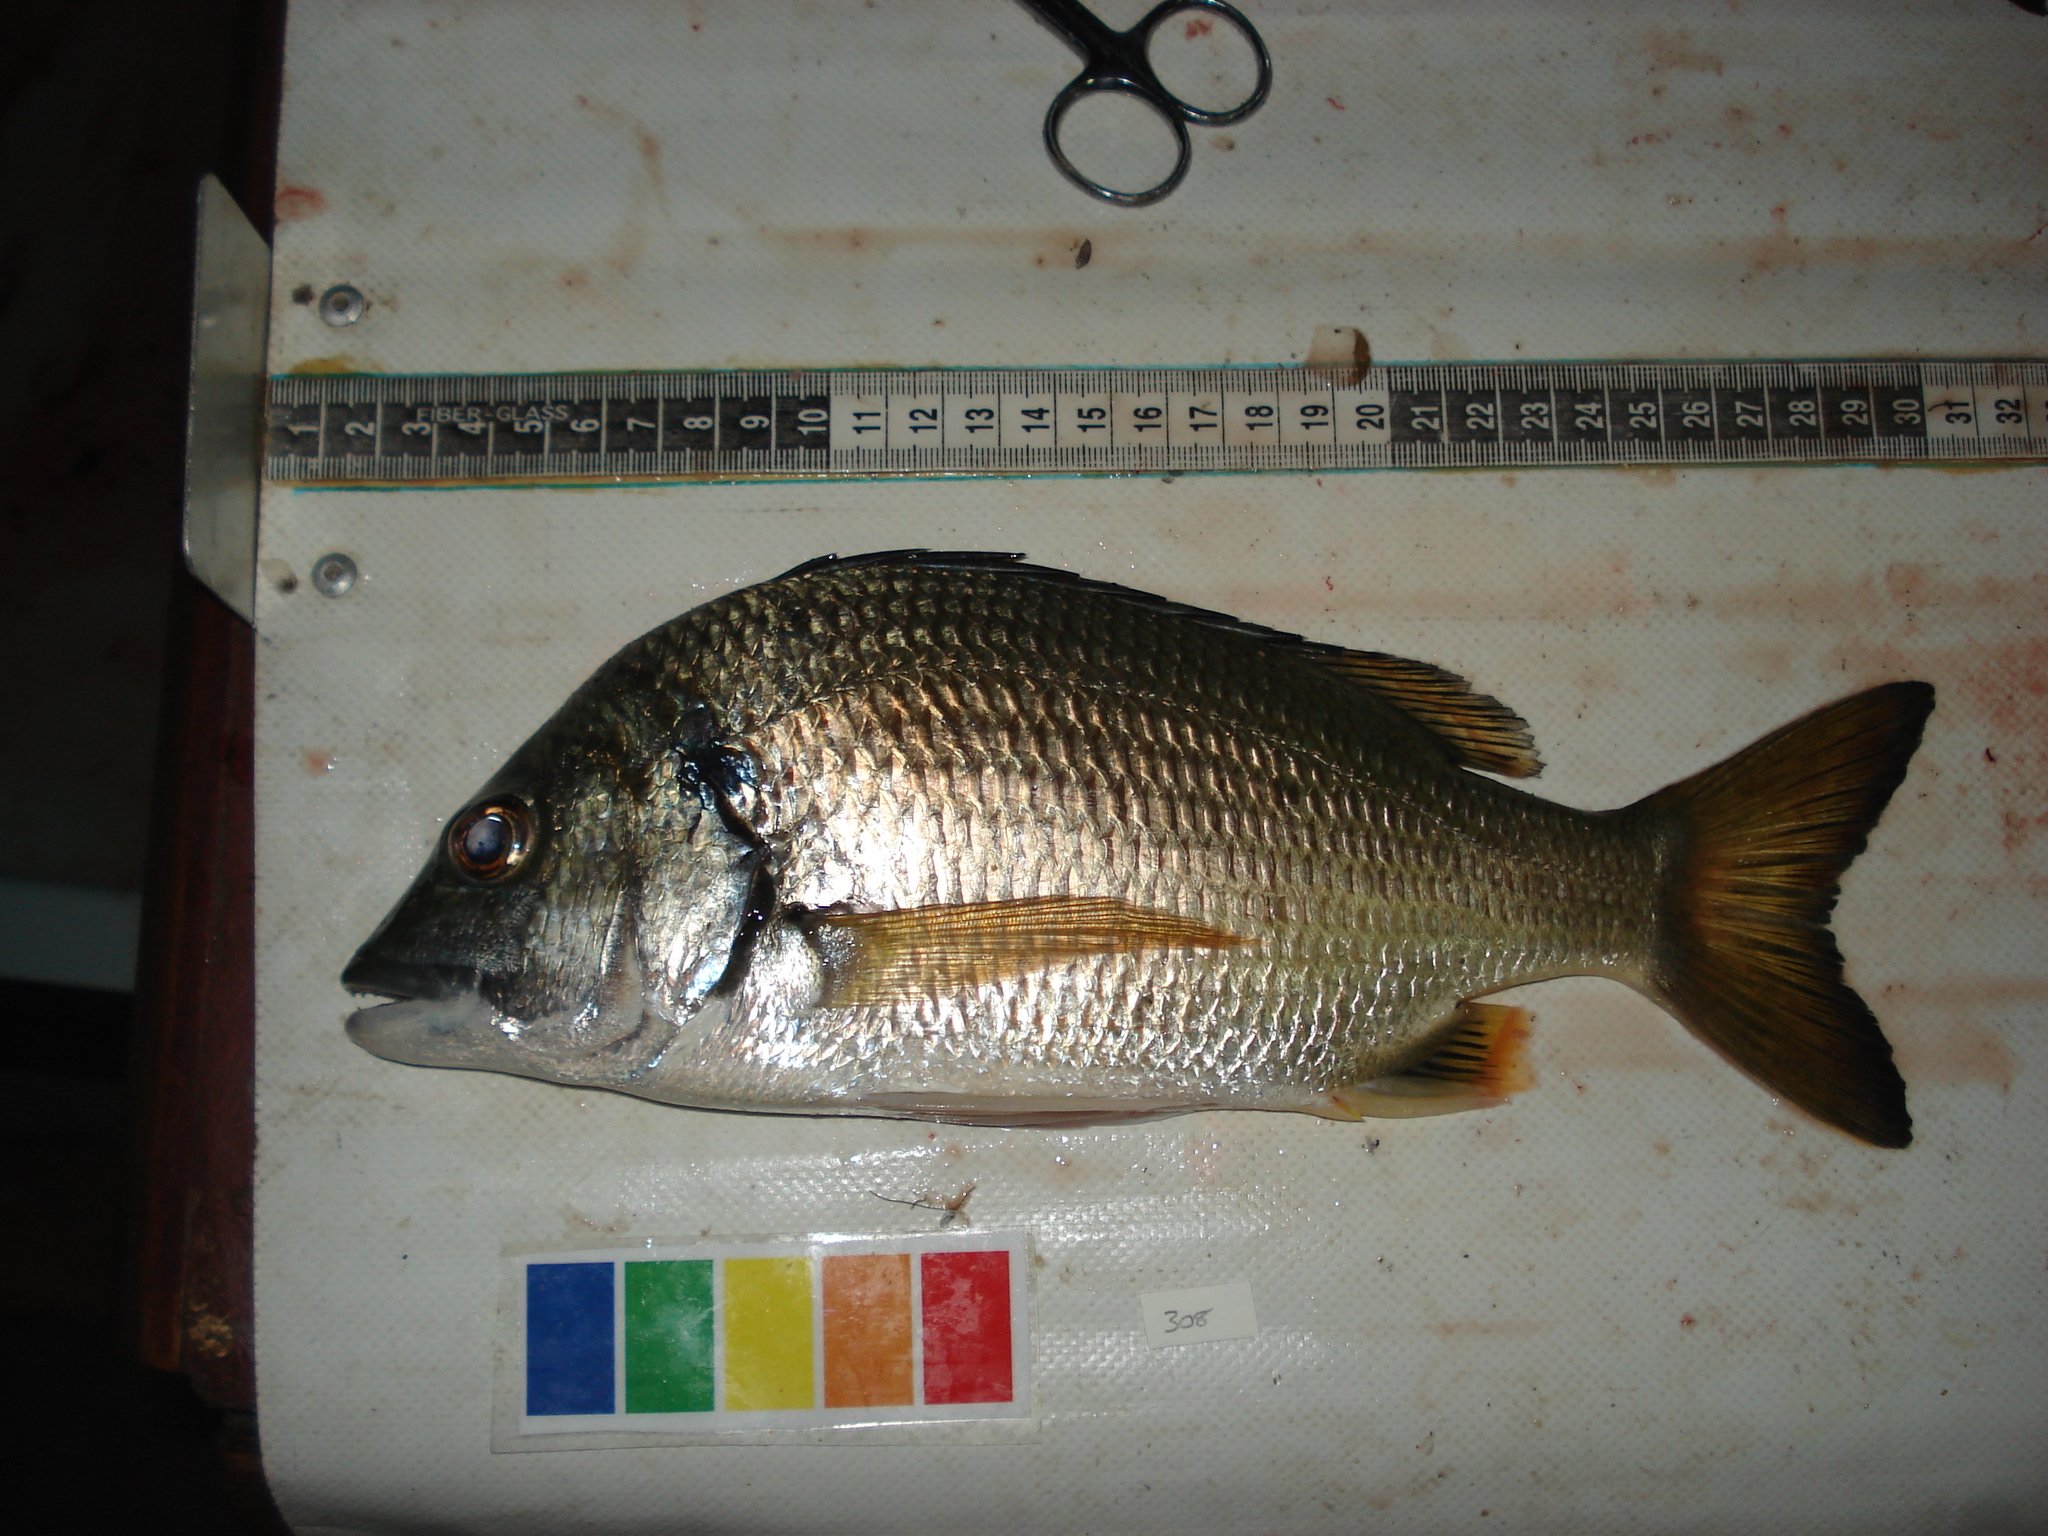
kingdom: Animalia
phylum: Chordata
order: Perciformes
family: Sparidae
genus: Acanthopagrus
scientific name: Acanthopagrus berda
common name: Picnic seabream
